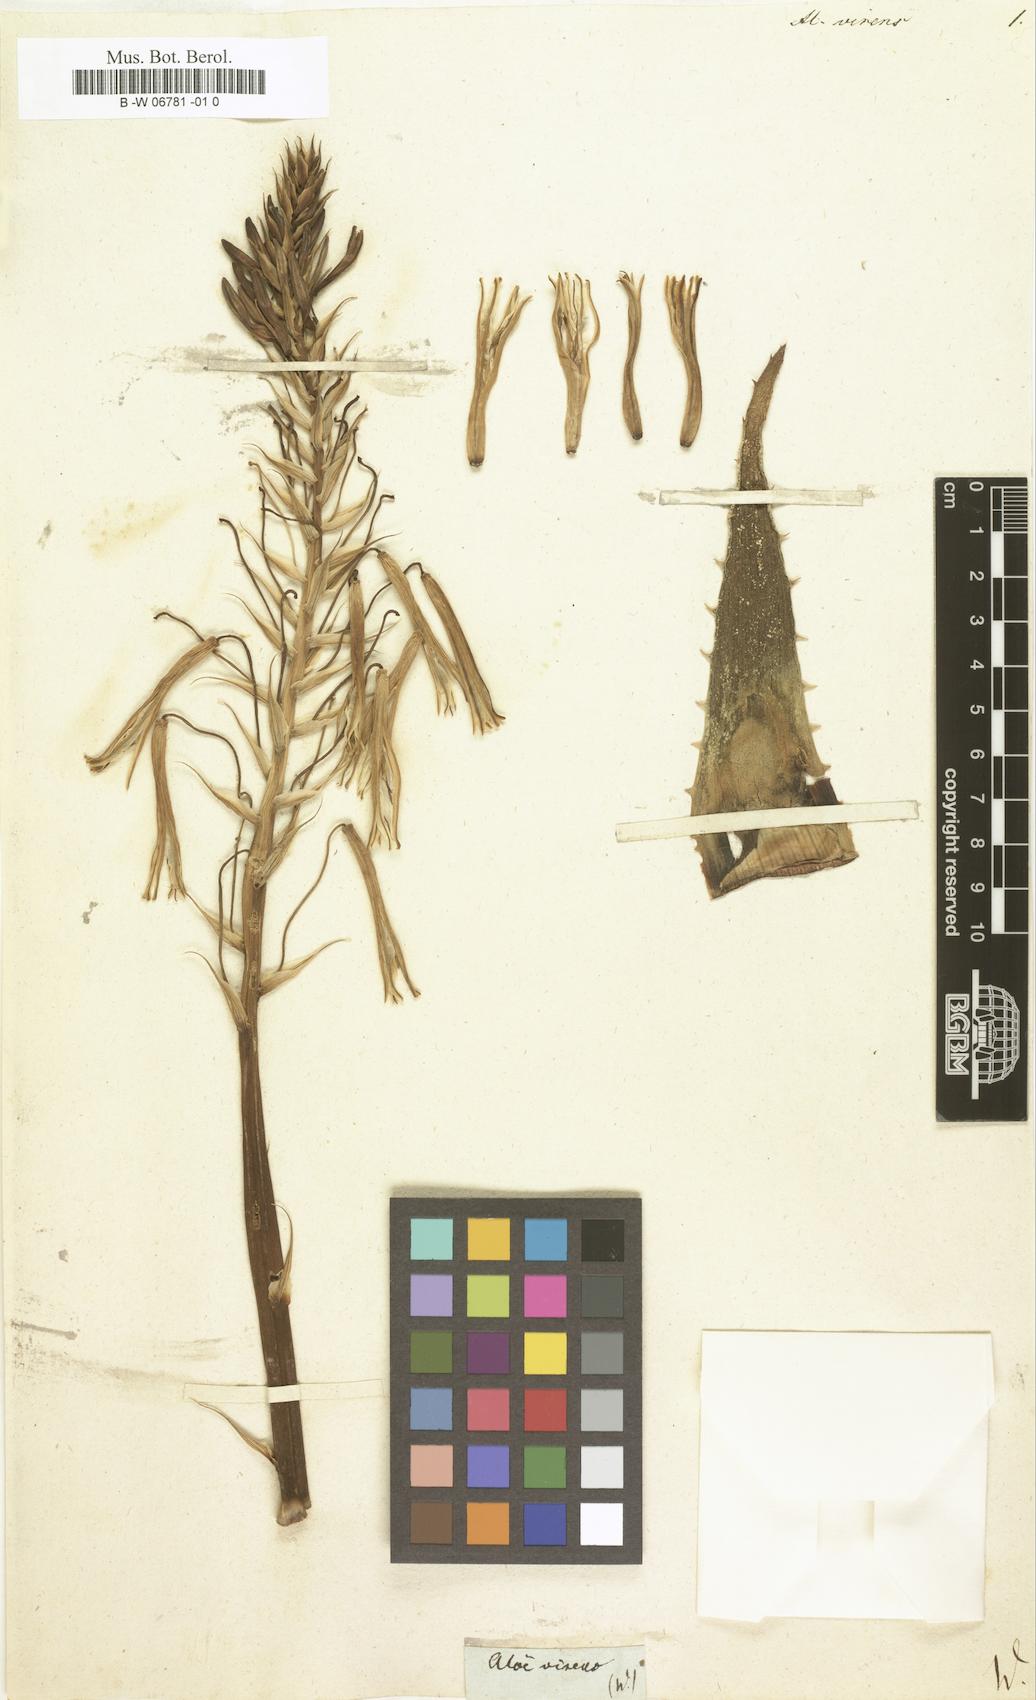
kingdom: Plantae
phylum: Tracheophyta
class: Liliopsida
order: Asparagales
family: Asphodelaceae
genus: Aloe
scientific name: Aloe humilis
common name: Dwarf hedgehog aloe
